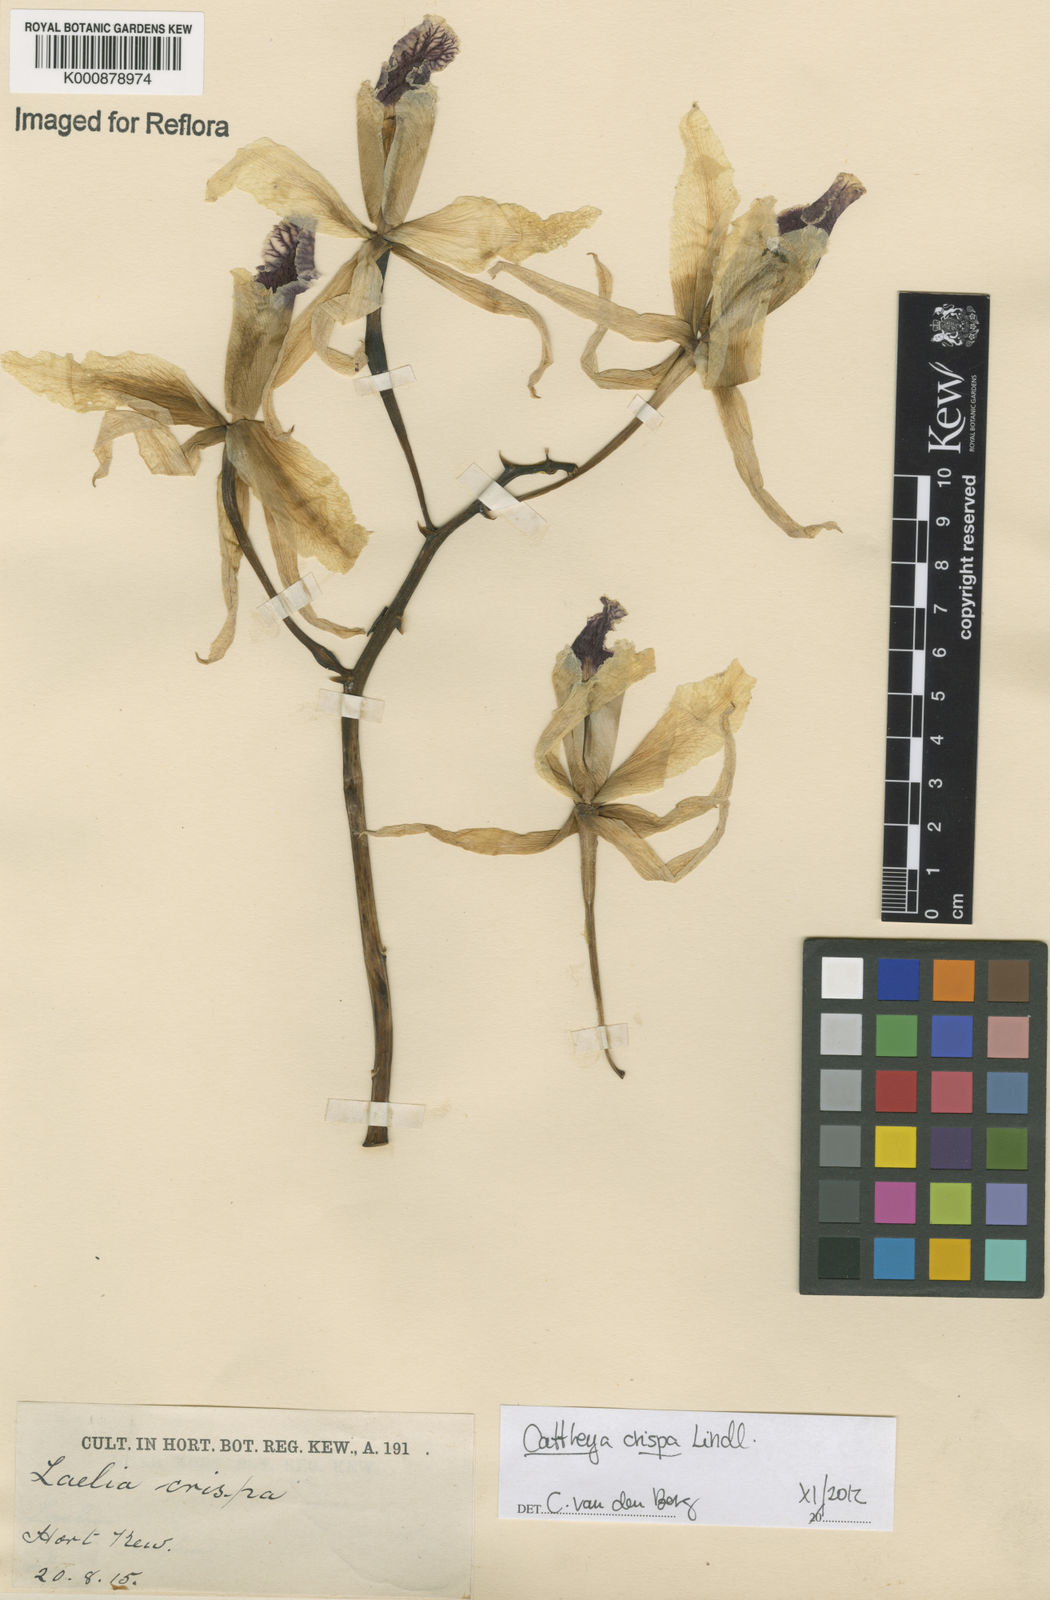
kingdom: Plantae
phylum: Tracheophyta
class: Liliopsida
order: Asparagales
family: Orchidaceae
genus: Cattleya
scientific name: Cattleya crispata
